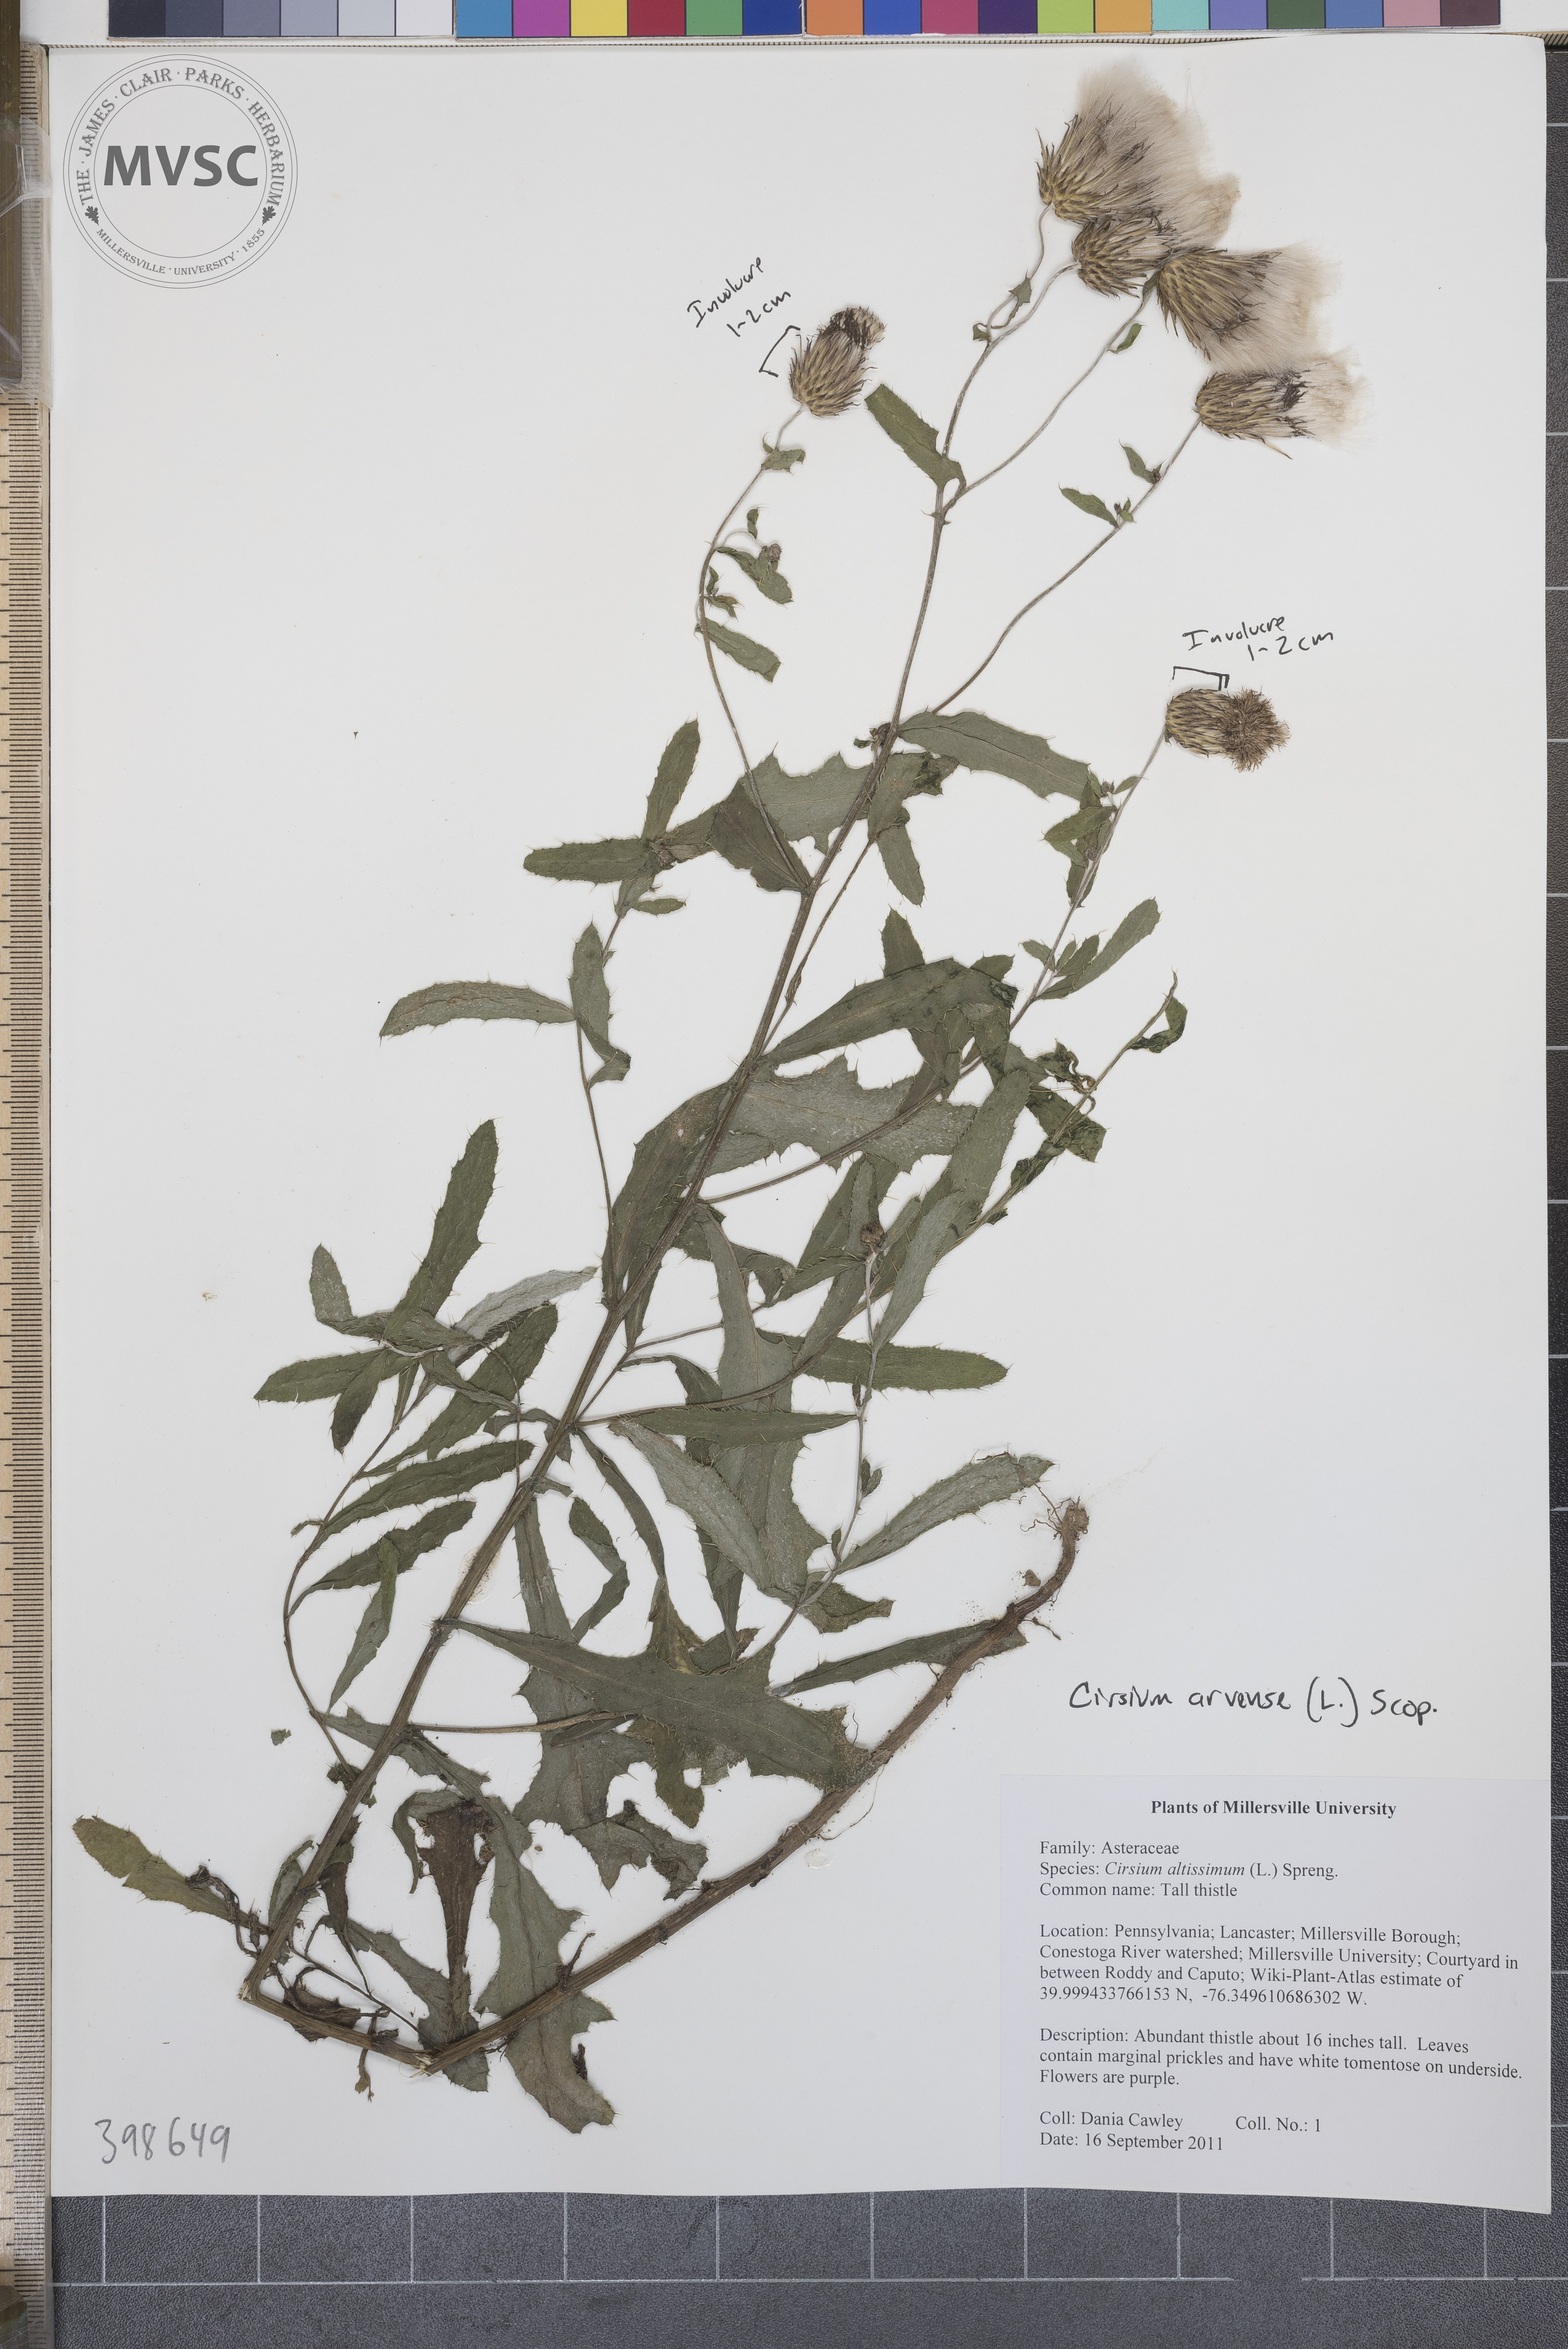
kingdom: Plantae
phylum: Tracheophyta
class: Magnoliopsida
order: Asterales
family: Asteraceae
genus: Cirsium
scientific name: Cirsium arvense
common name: Canada thistle
